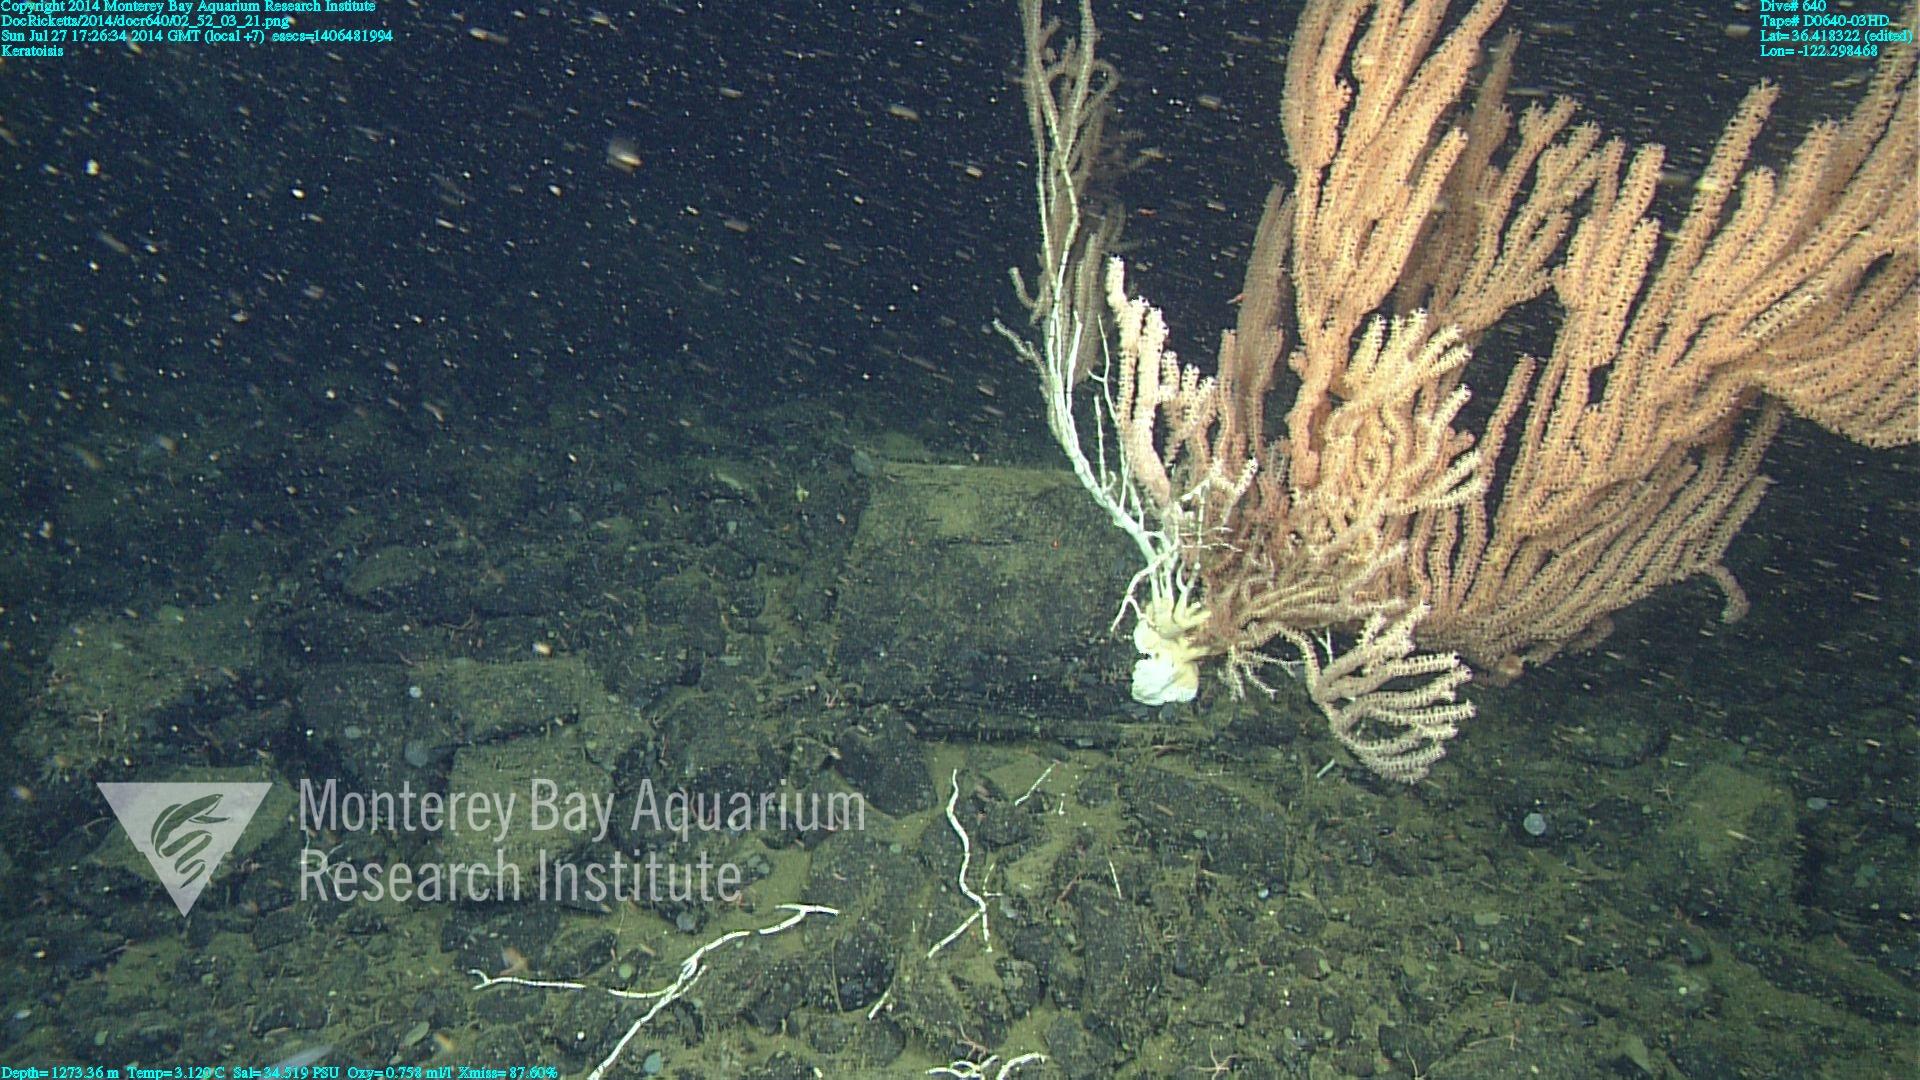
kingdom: Animalia
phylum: Cnidaria
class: Anthozoa
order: Scleralcyonacea
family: Keratoisididae
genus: Keratoisis
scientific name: Keratoisis
